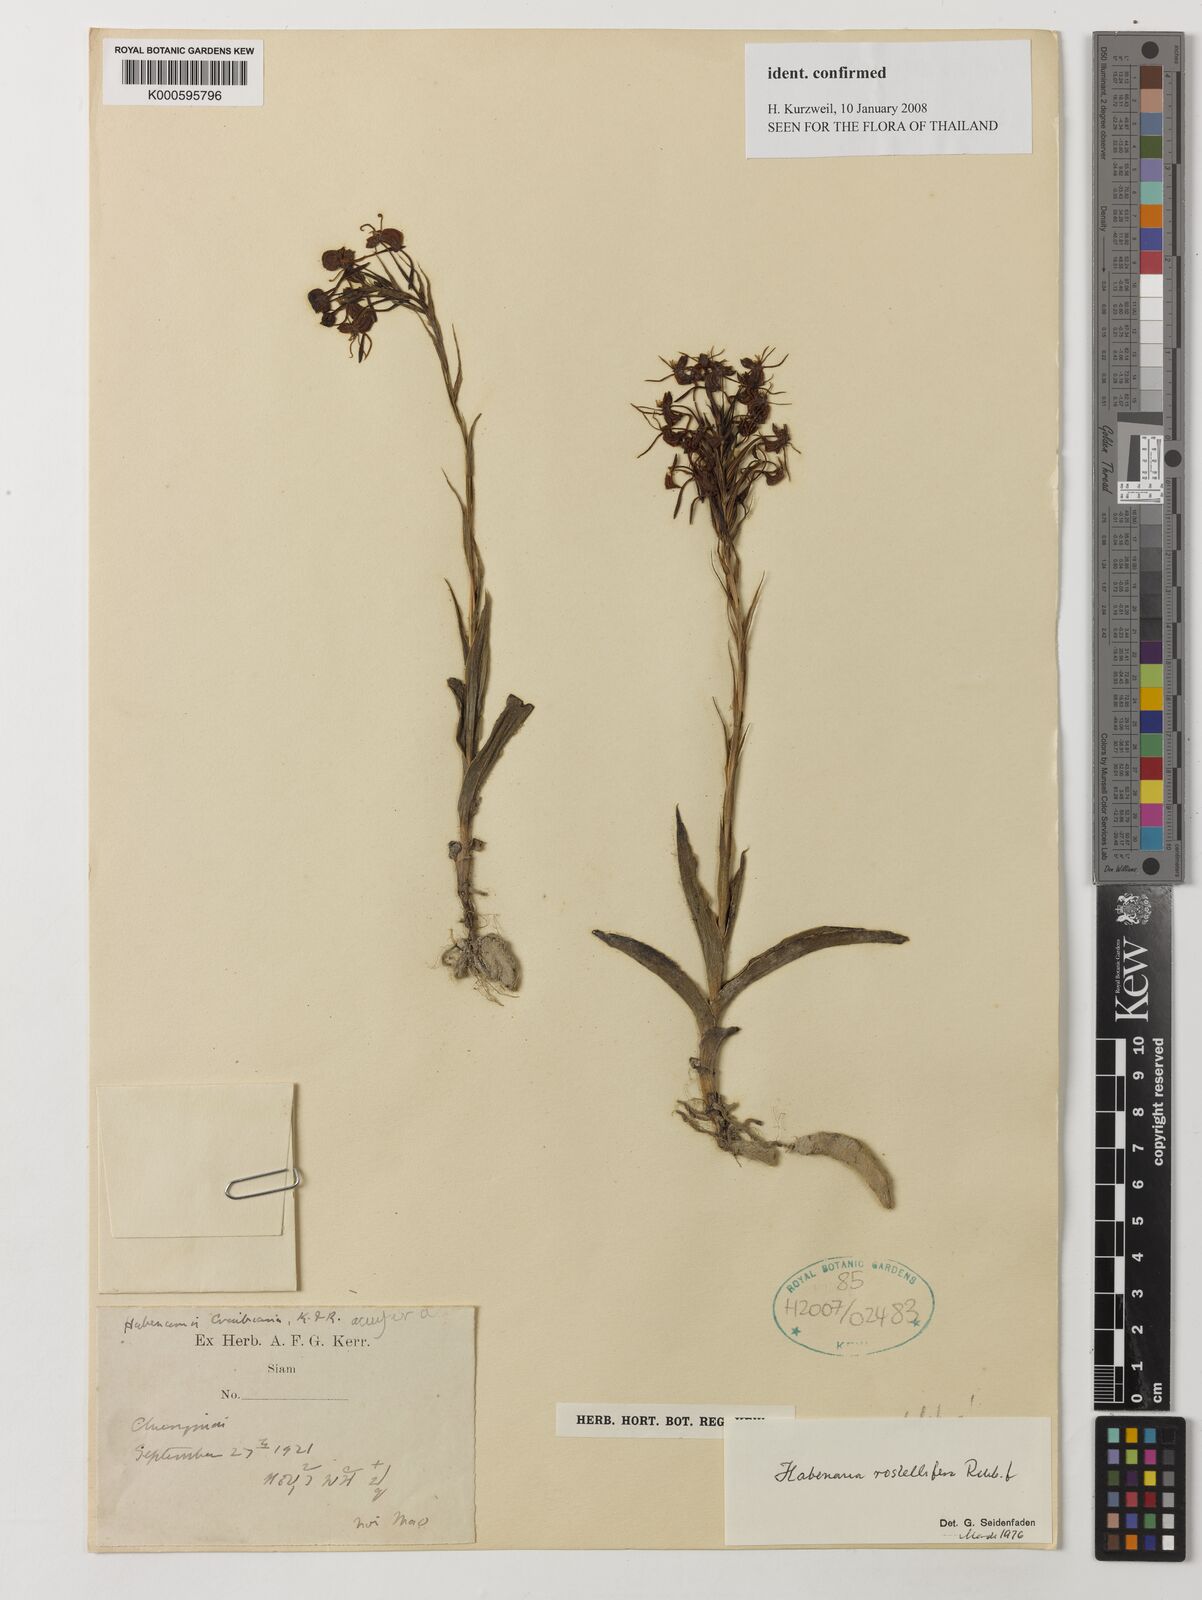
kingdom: Plantae
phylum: Tracheophyta
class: Liliopsida
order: Asparagales
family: Orchidaceae
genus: Habenaria
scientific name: Habenaria rostellifera
